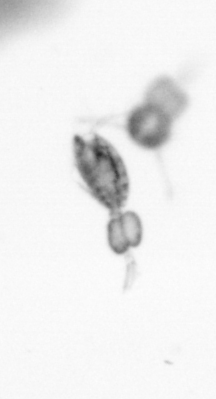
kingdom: Animalia
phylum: Arthropoda
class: Copepoda
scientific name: Copepoda
